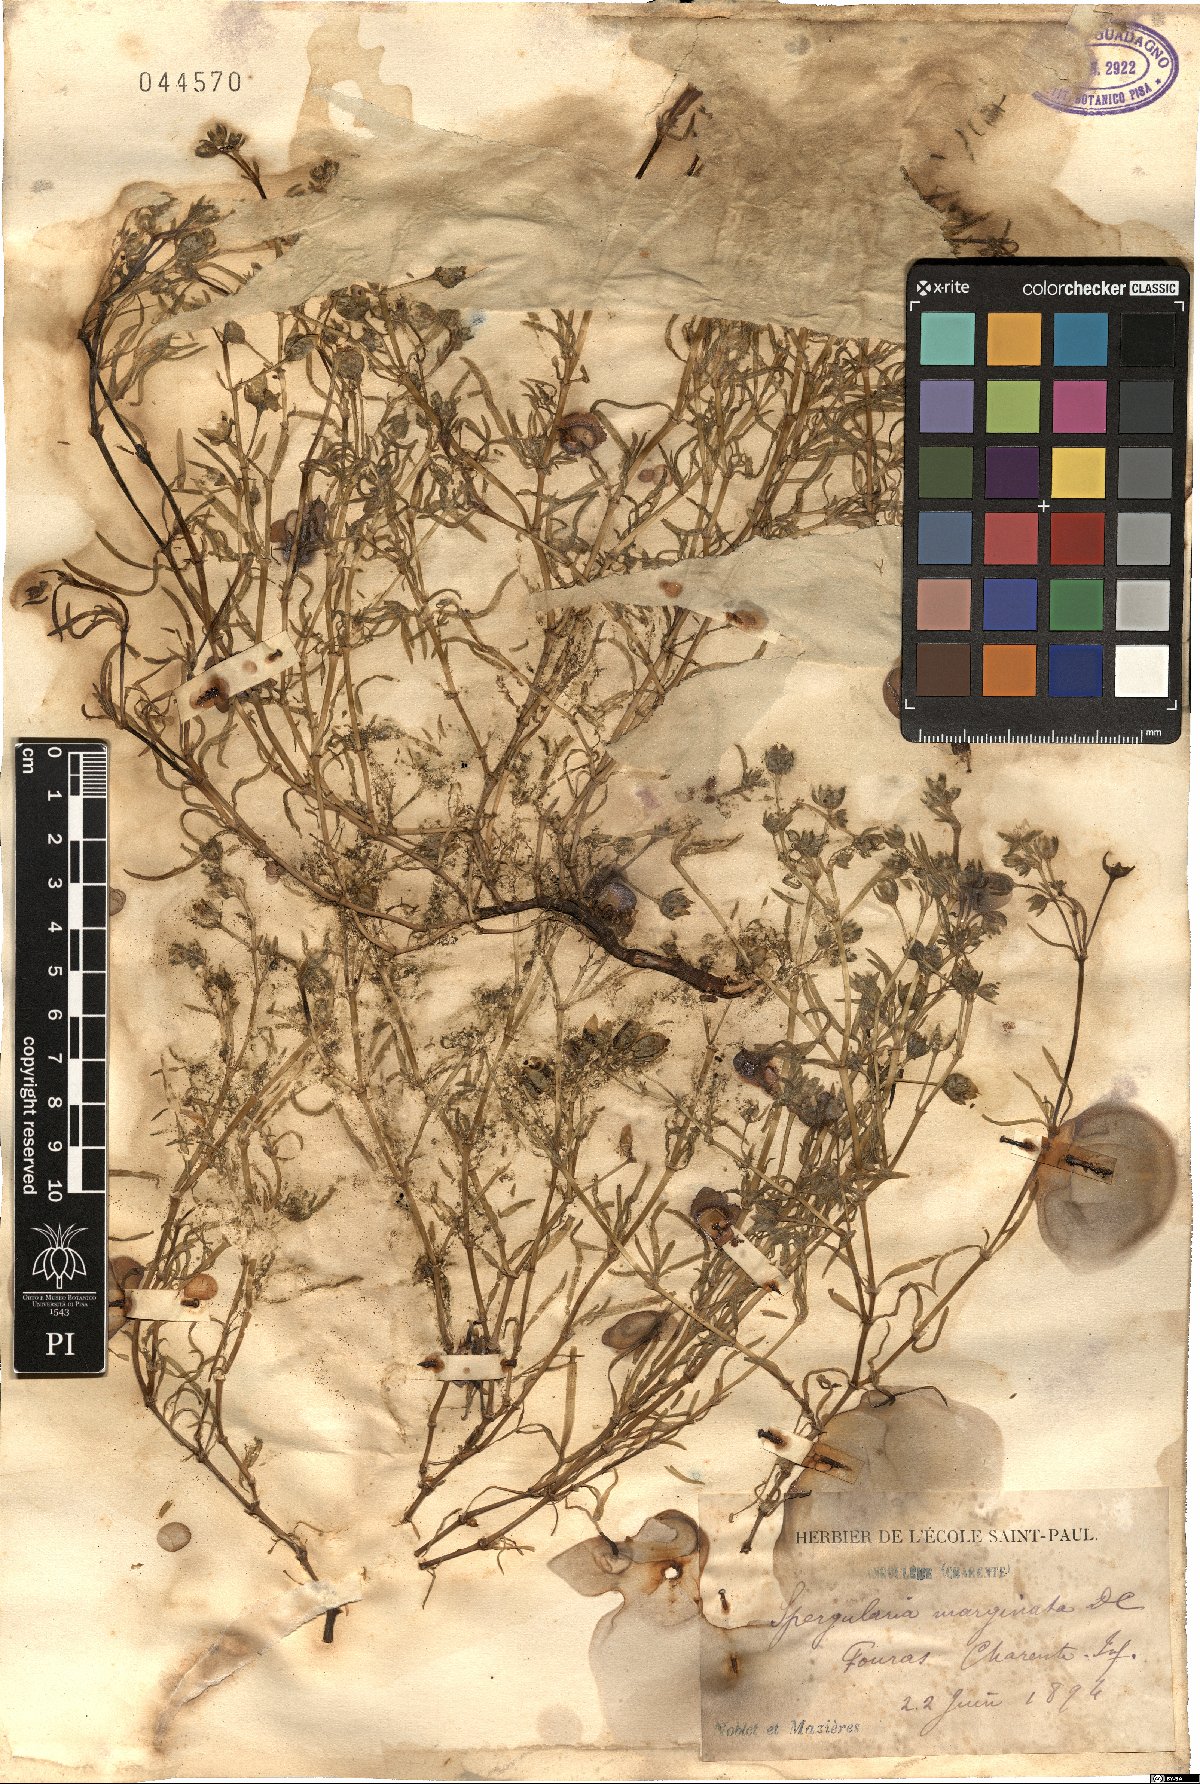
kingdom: Plantae
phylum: Tracheophyta
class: Magnoliopsida
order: Caryophyllales
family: Caryophyllaceae
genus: Spergularia
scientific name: Spergularia media
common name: Greater sea-spurrey
